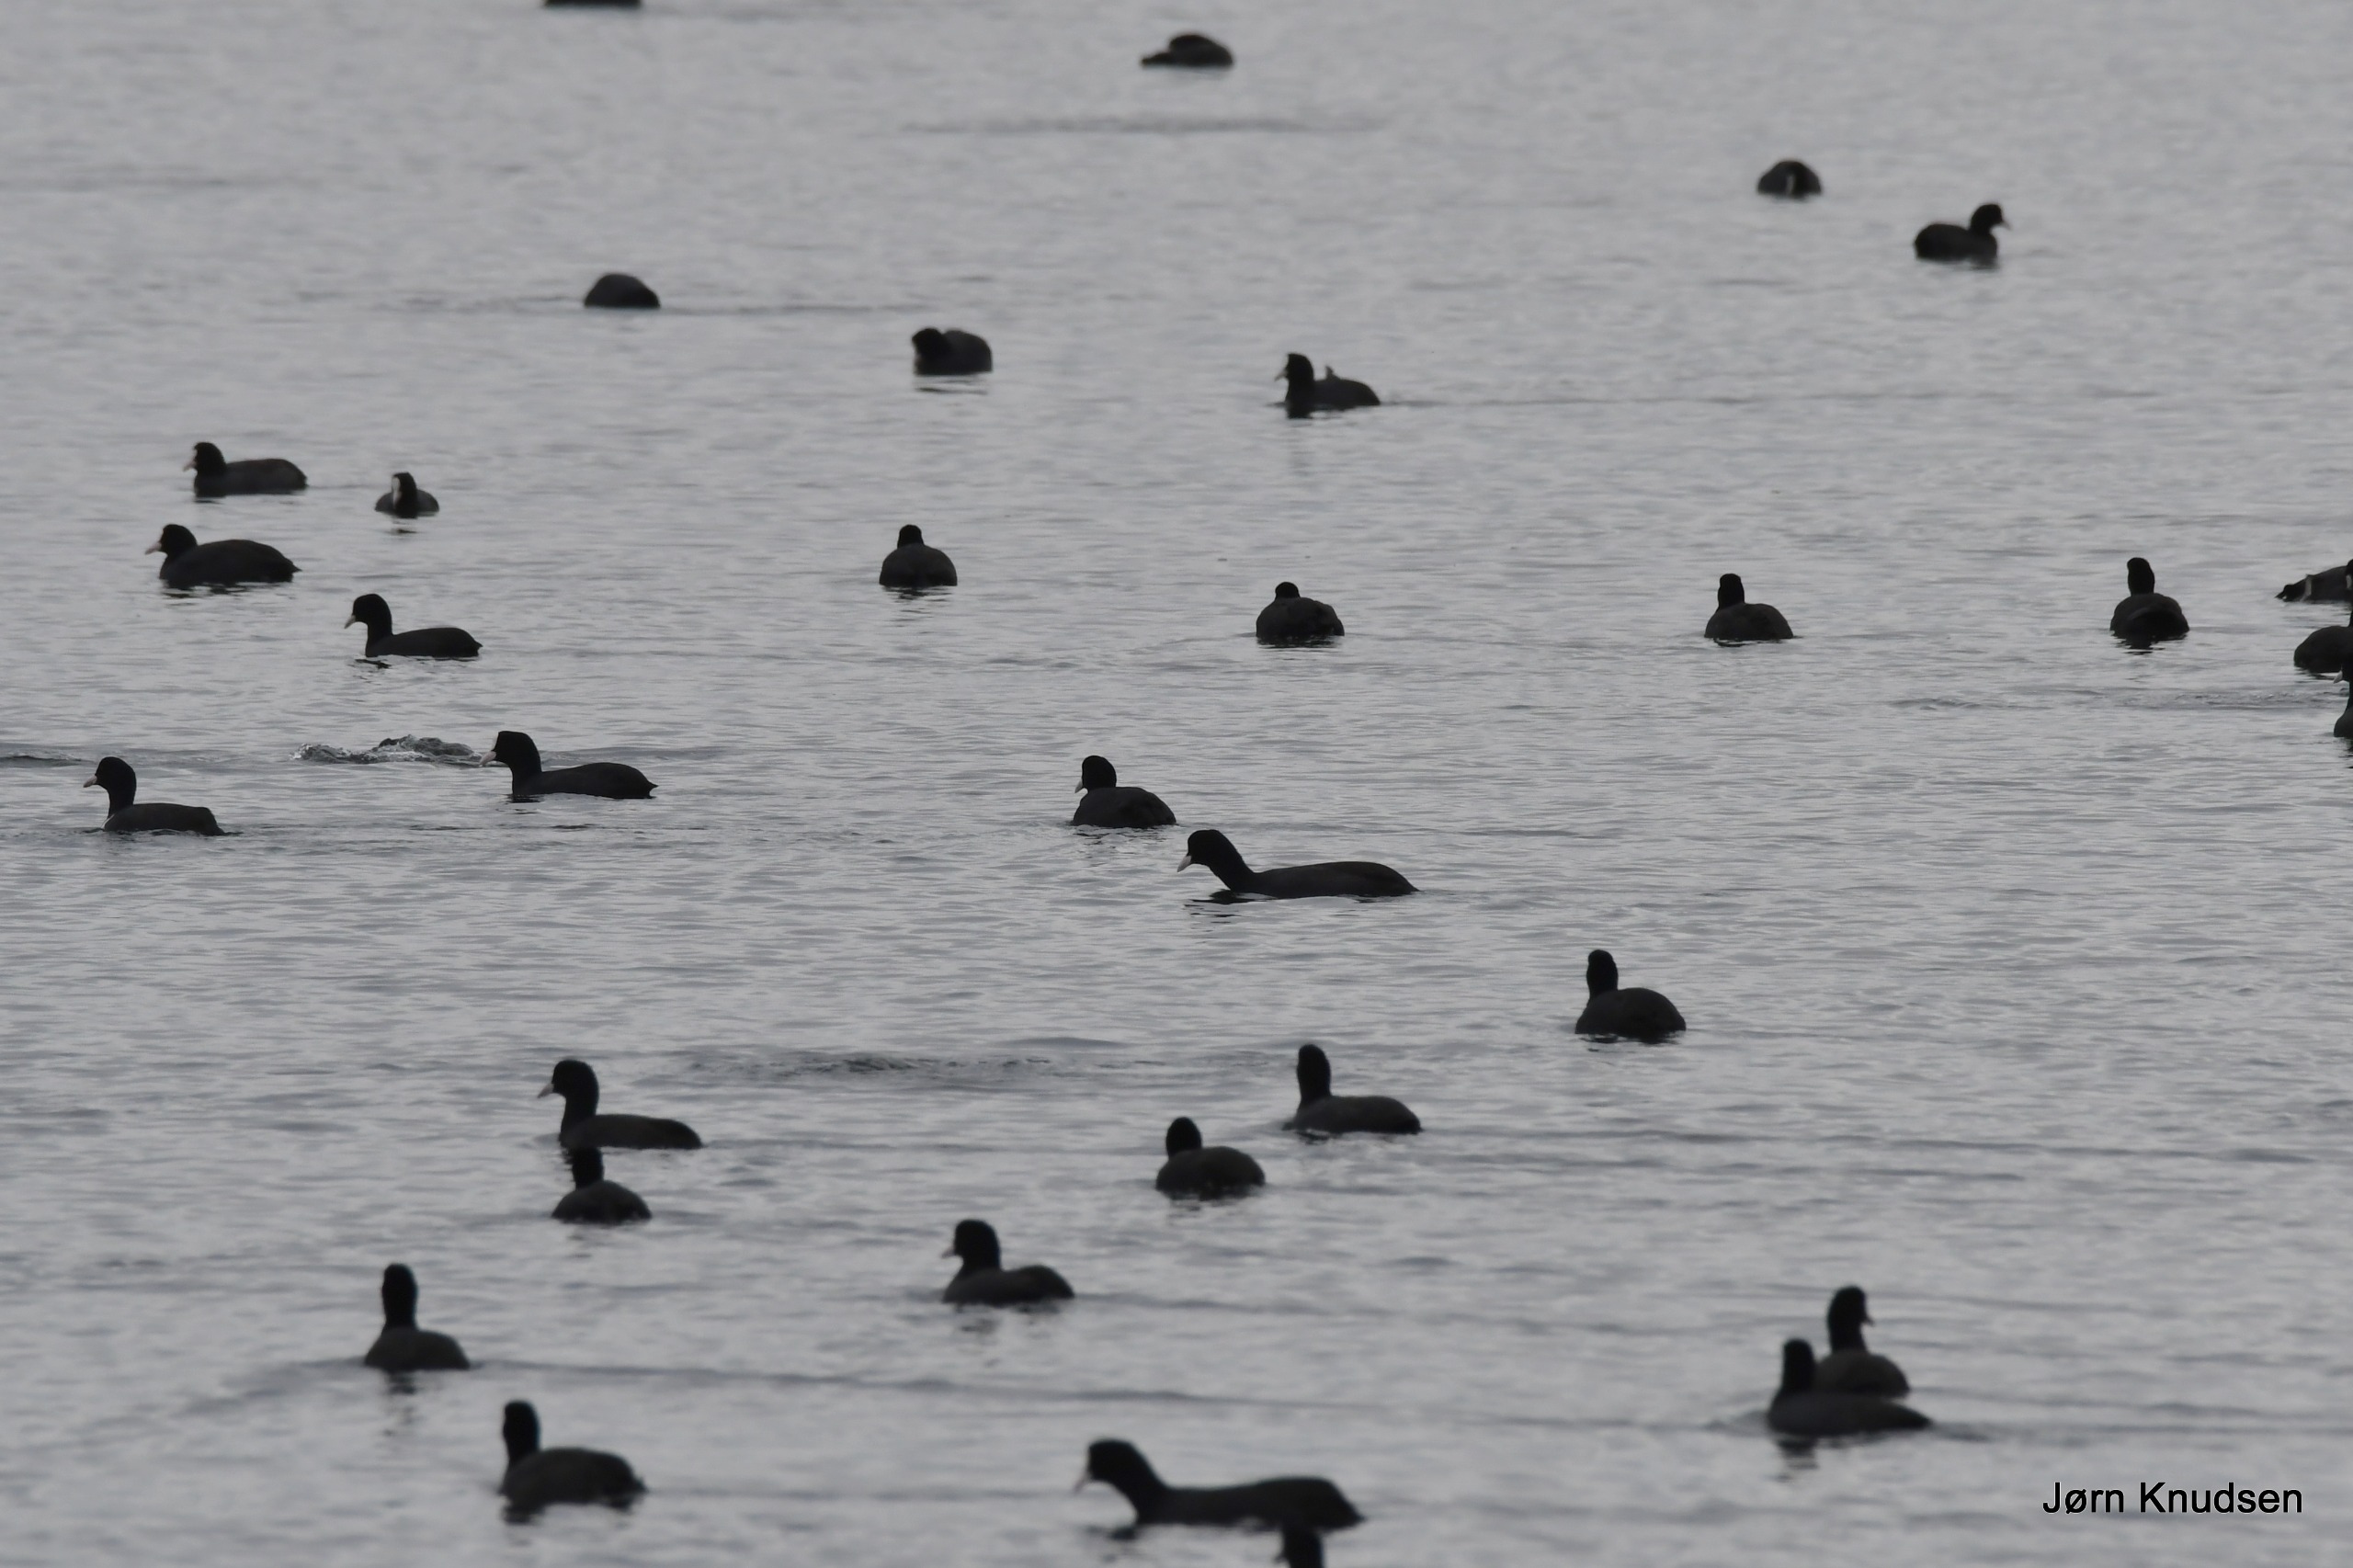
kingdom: Animalia
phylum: Chordata
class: Aves
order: Gruiformes
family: Rallidae
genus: Fulica
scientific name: Fulica atra
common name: Blishøne
